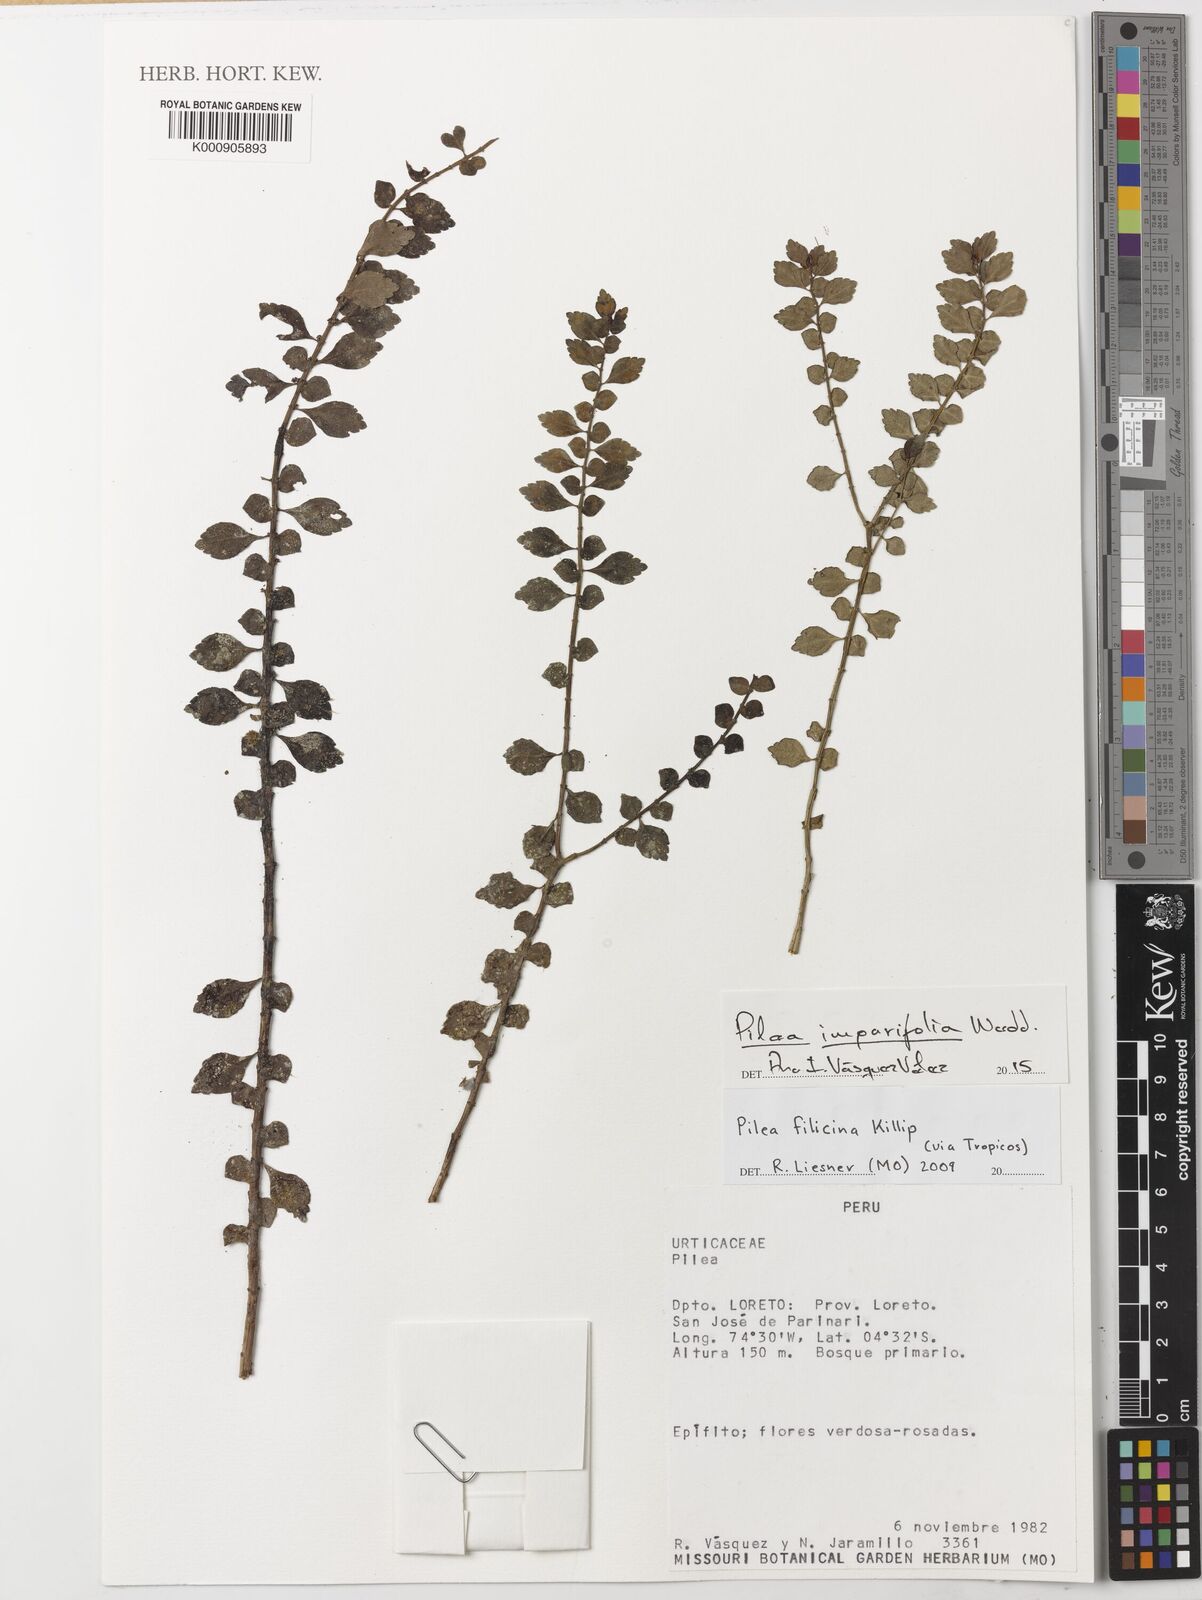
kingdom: Plantae
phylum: Tracheophyta
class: Magnoliopsida
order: Rosales
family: Urticaceae
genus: Pilea
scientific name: Pilea imparifolia
